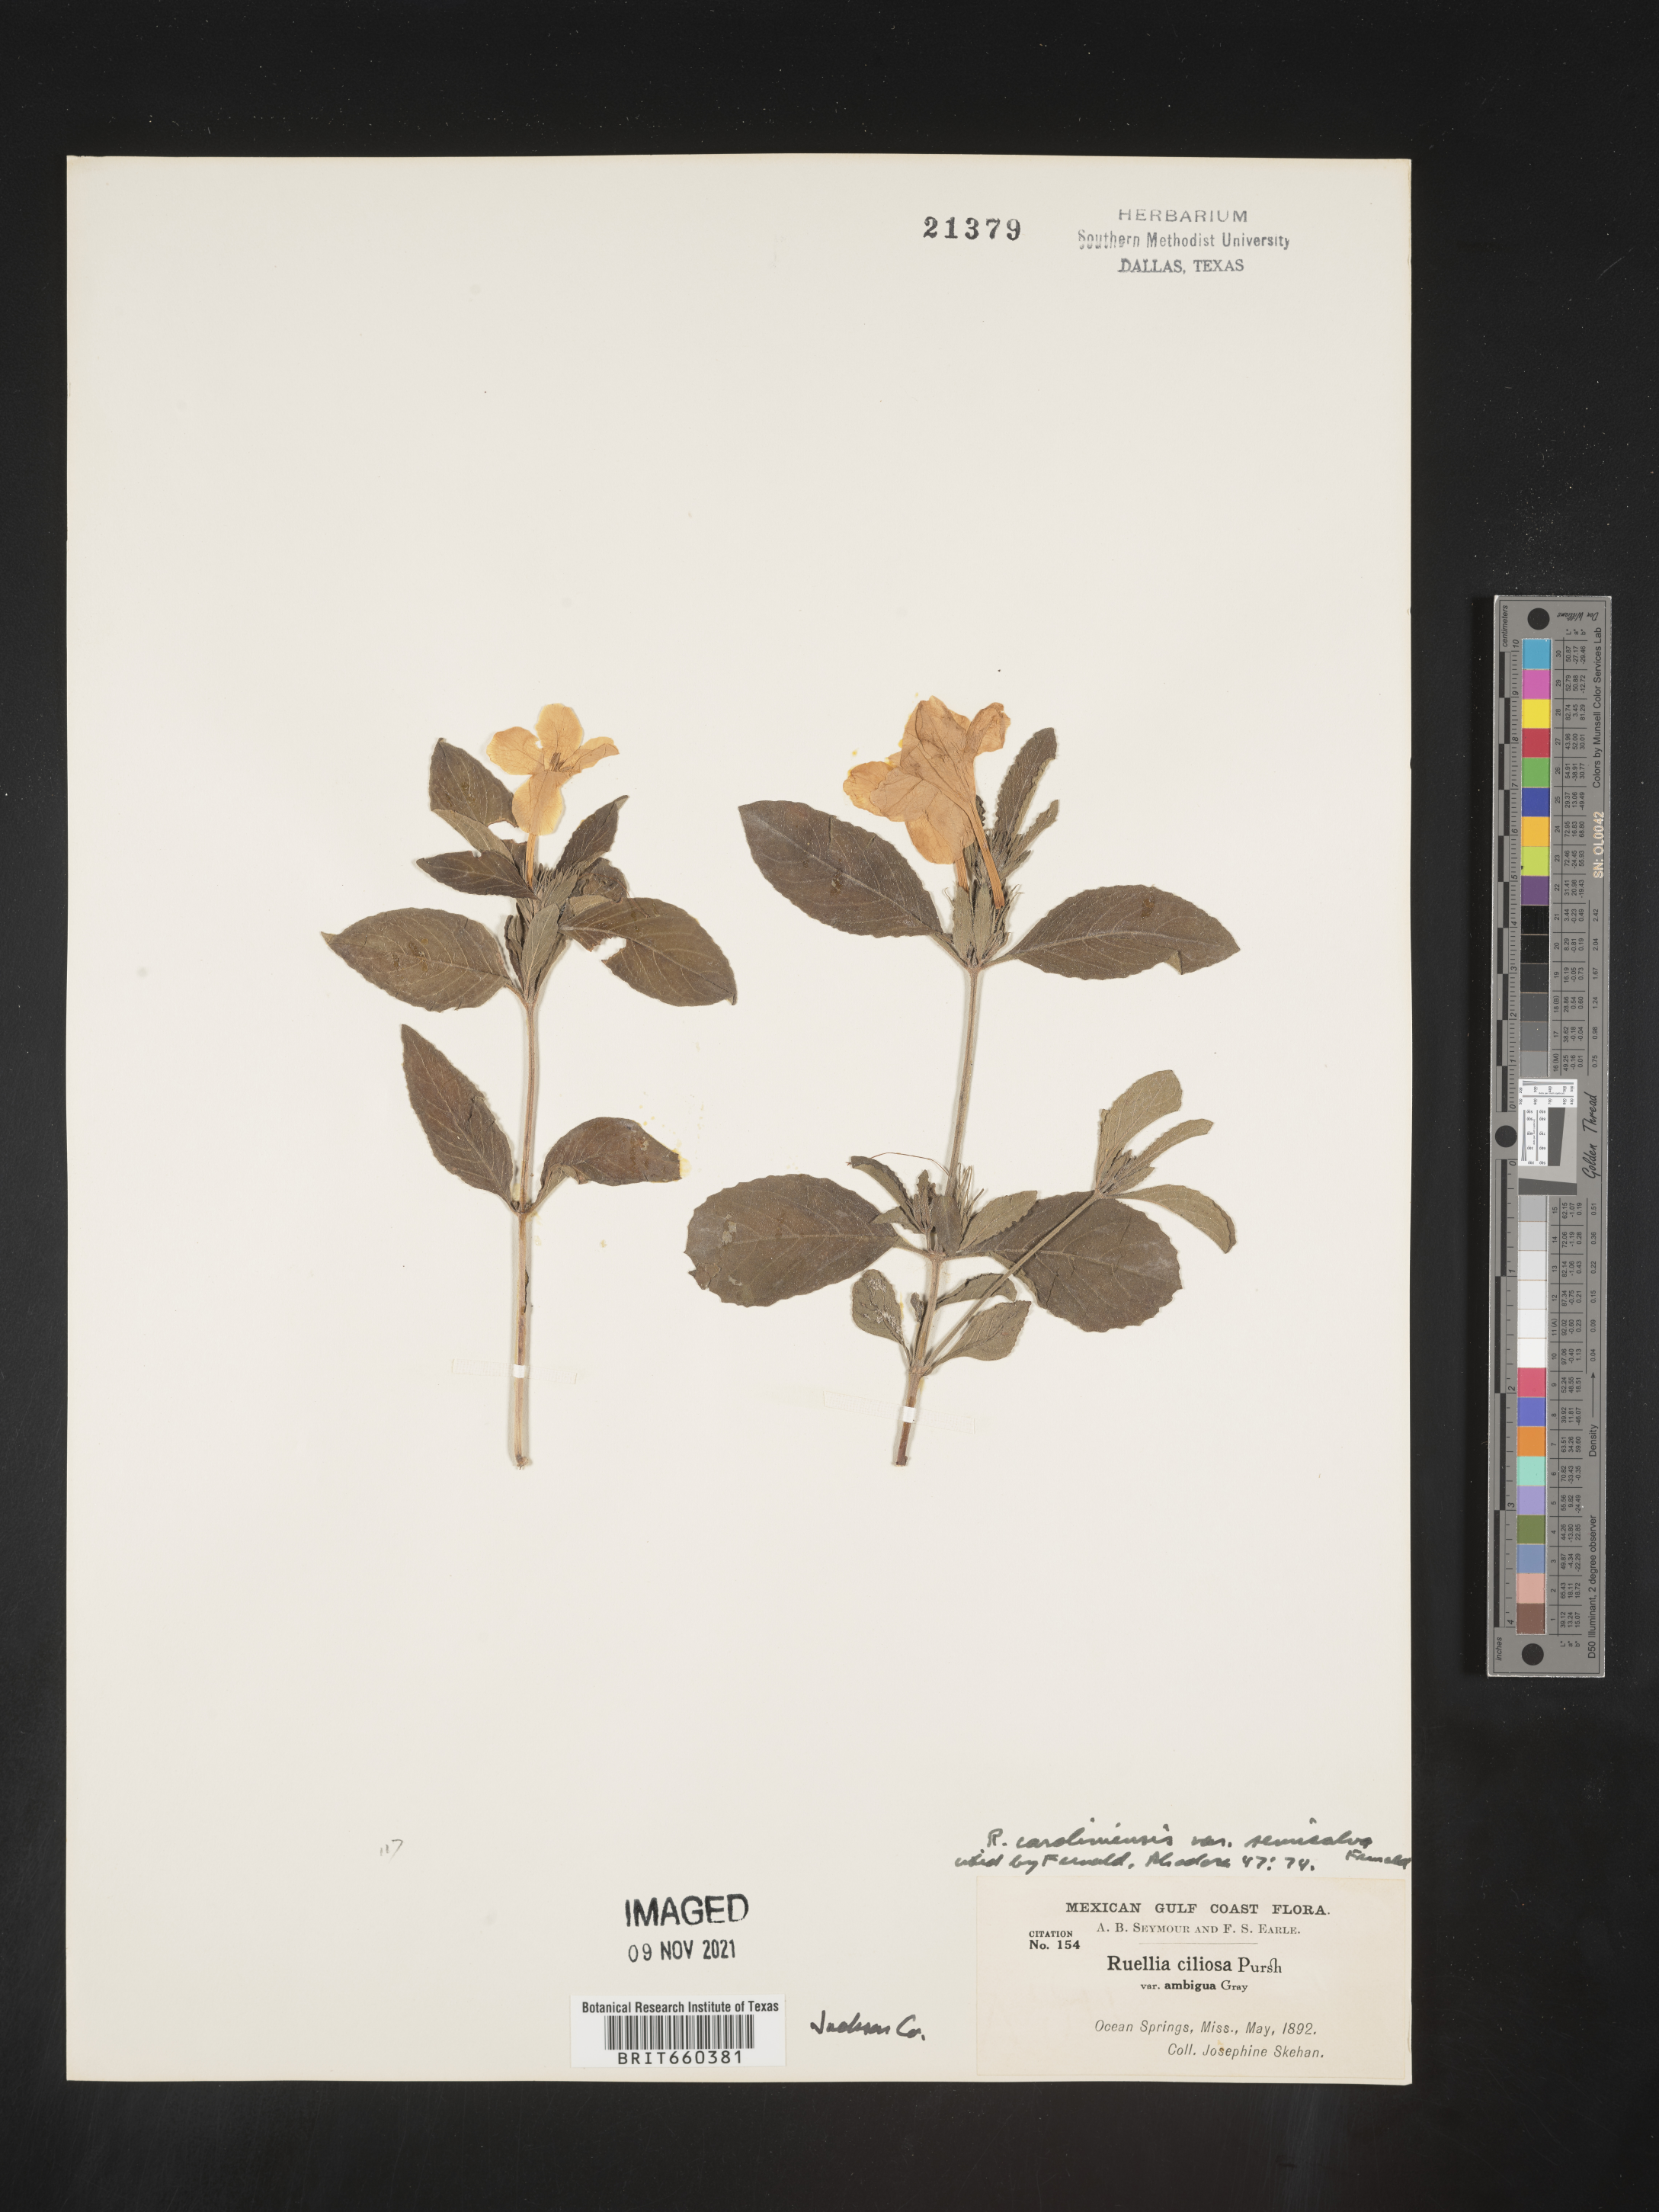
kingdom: Plantae
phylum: Tracheophyta
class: Magnoliopsida
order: Lamiales
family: Acanthaceae
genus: Ruellia
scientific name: Ruellia caroliniensis
